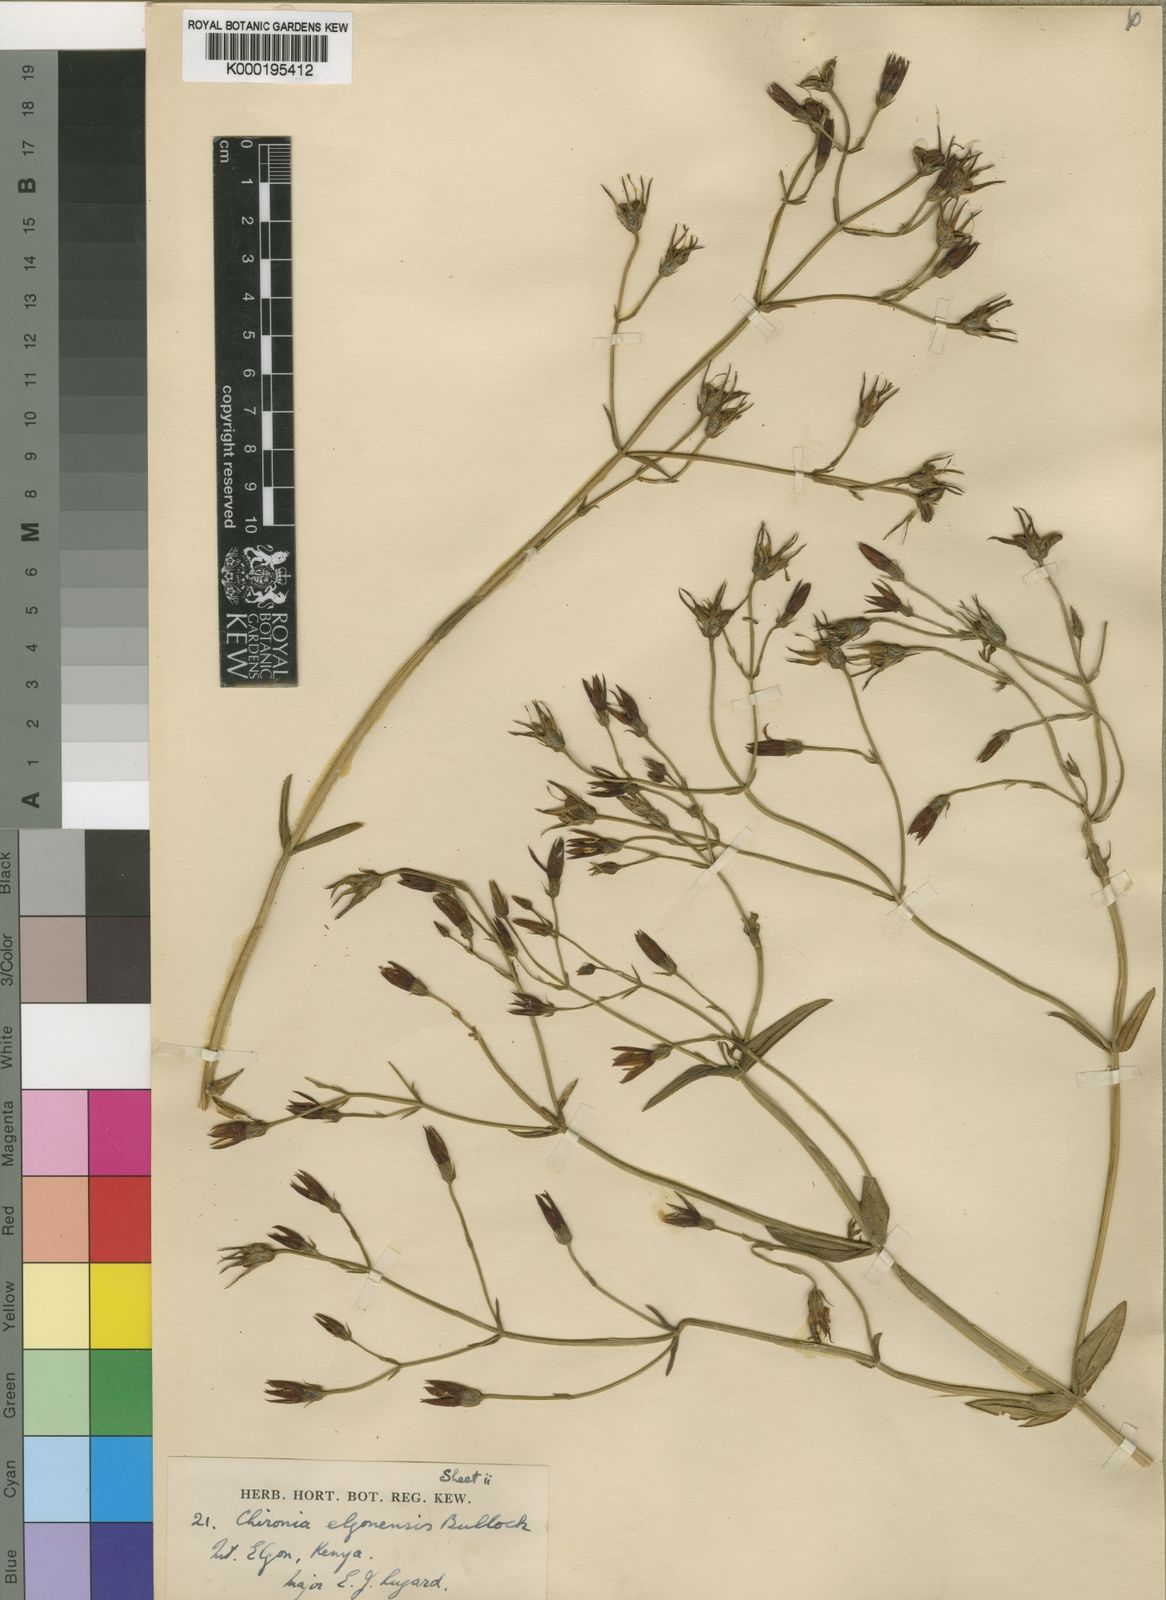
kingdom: Plantae
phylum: Tracheophyta
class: Magnoliopsida
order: Gentianales
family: Gentianaceae
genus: Chironia
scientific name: Chironia elgonensis
